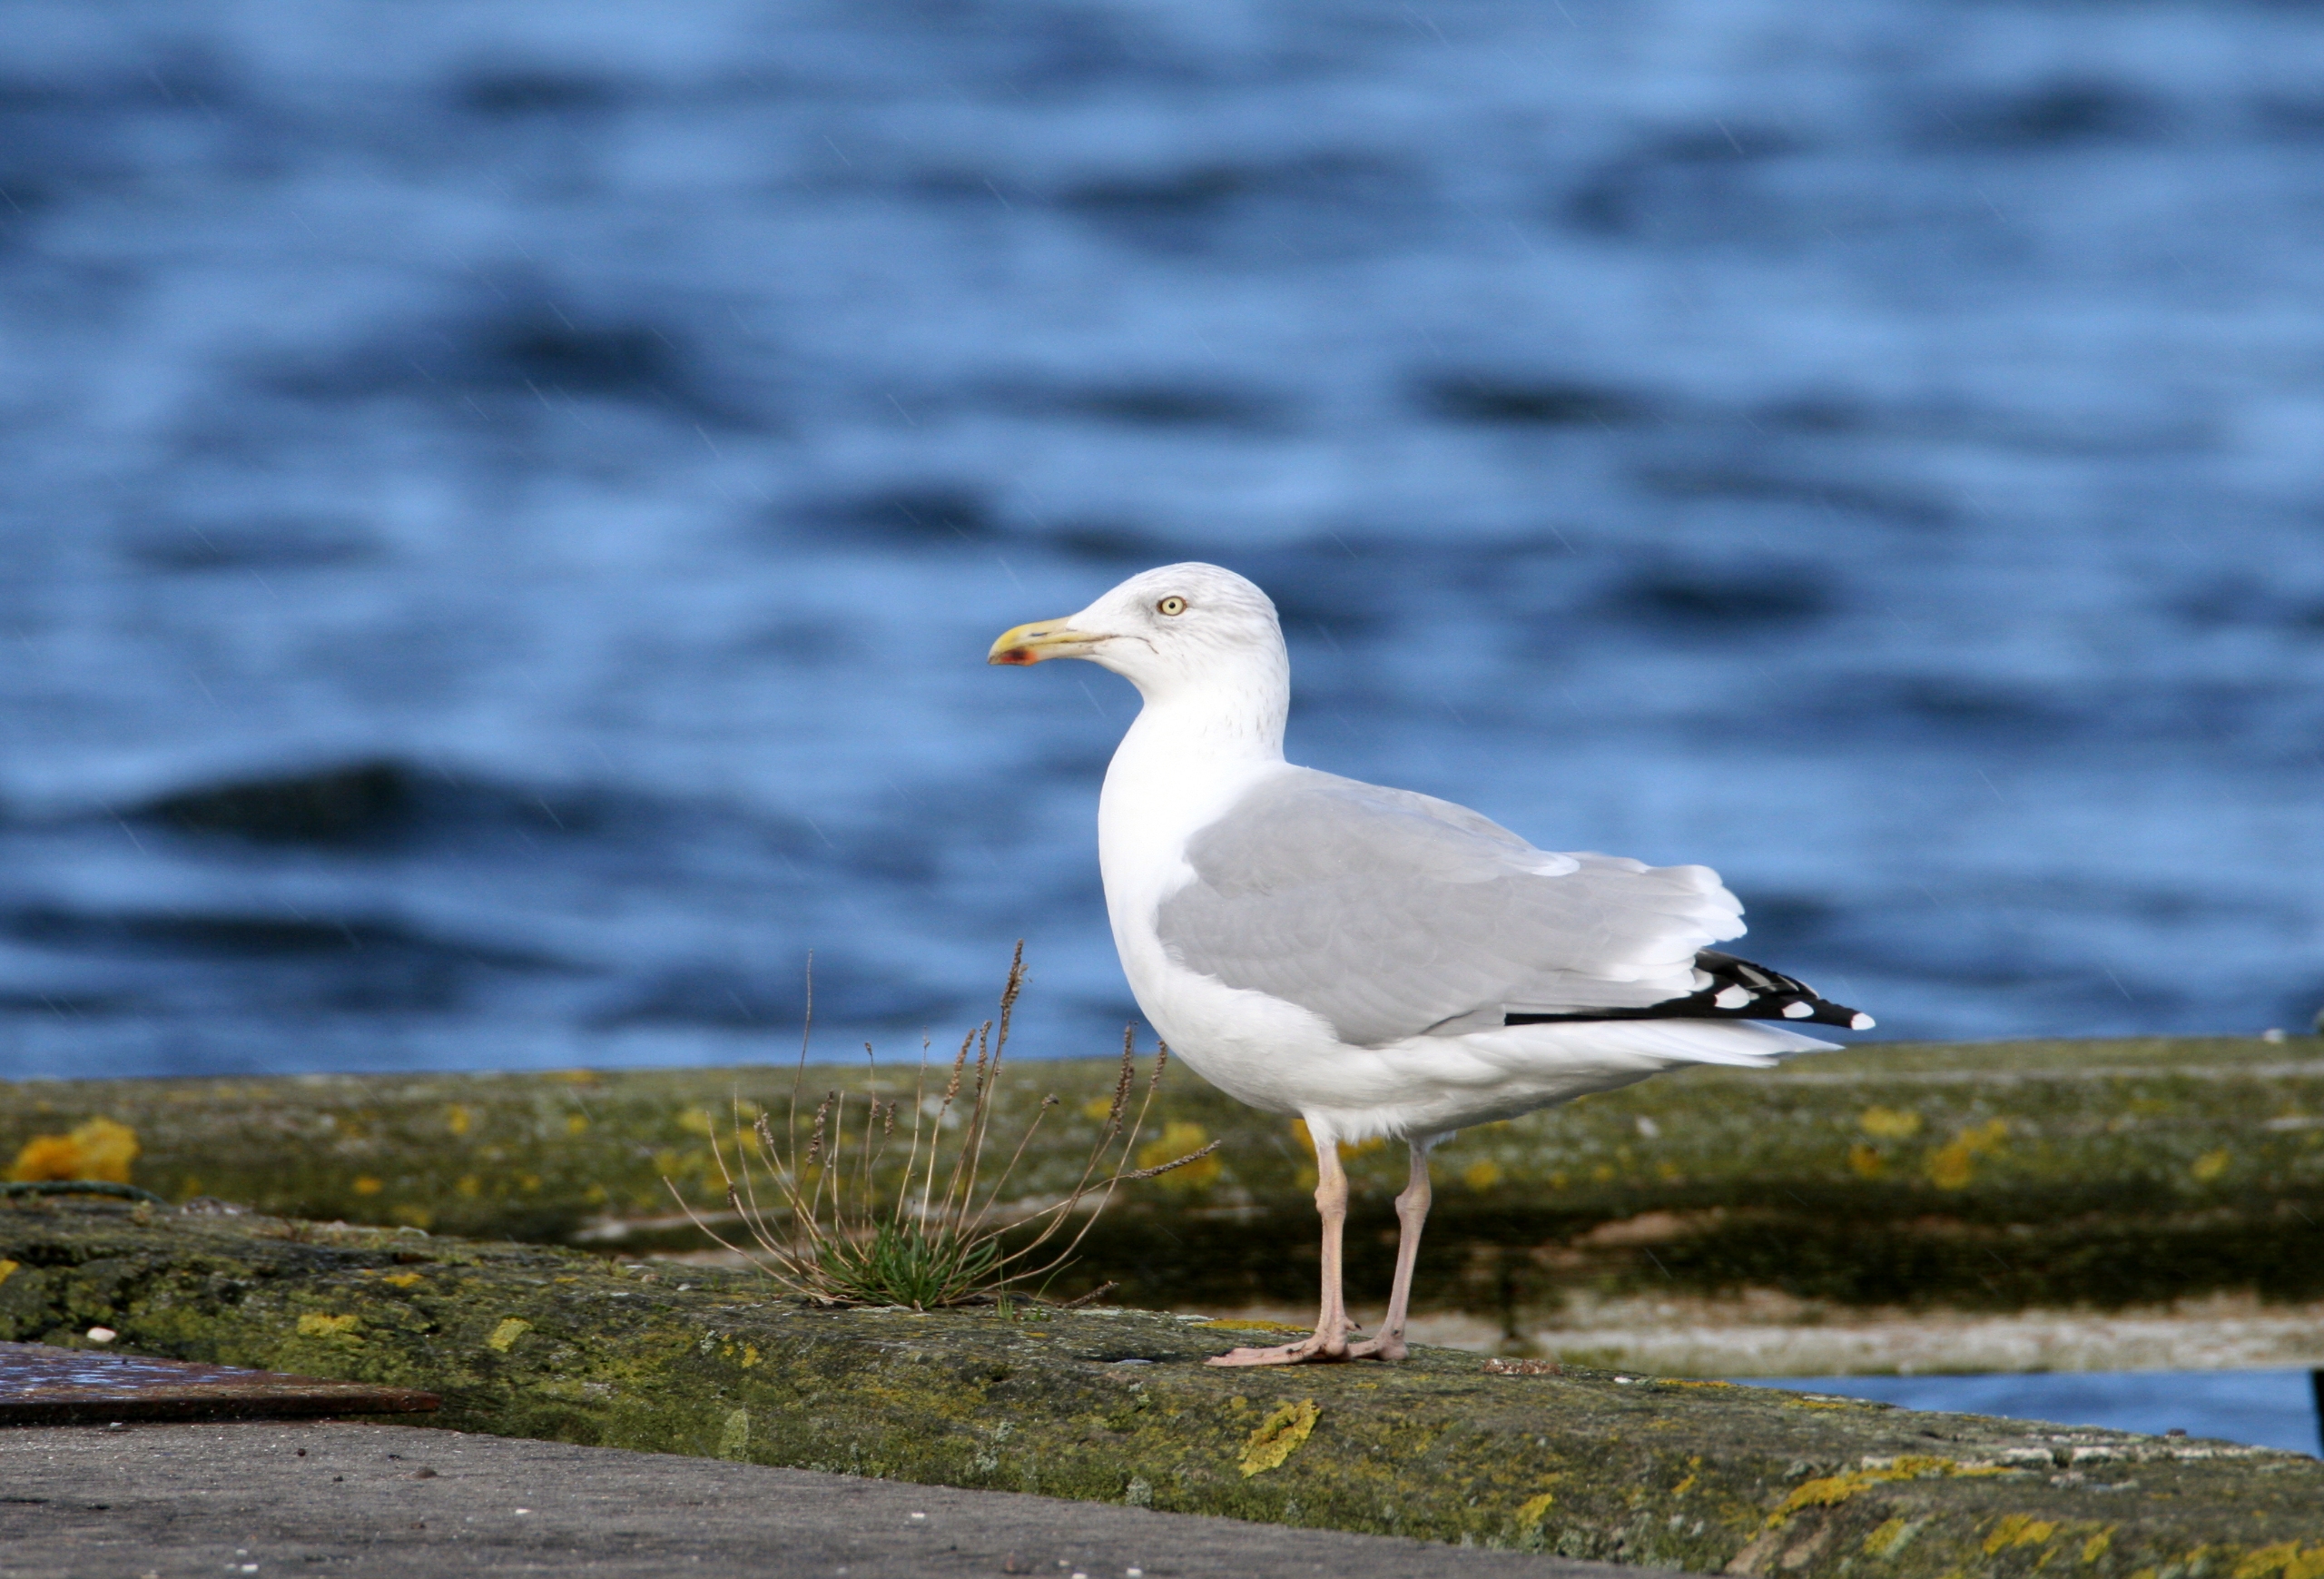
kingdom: Animalia
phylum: Chordata
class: Aves
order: Charadriiformes
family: Laridae
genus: Larus
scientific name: Larus argentatus
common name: Sølvmåge
